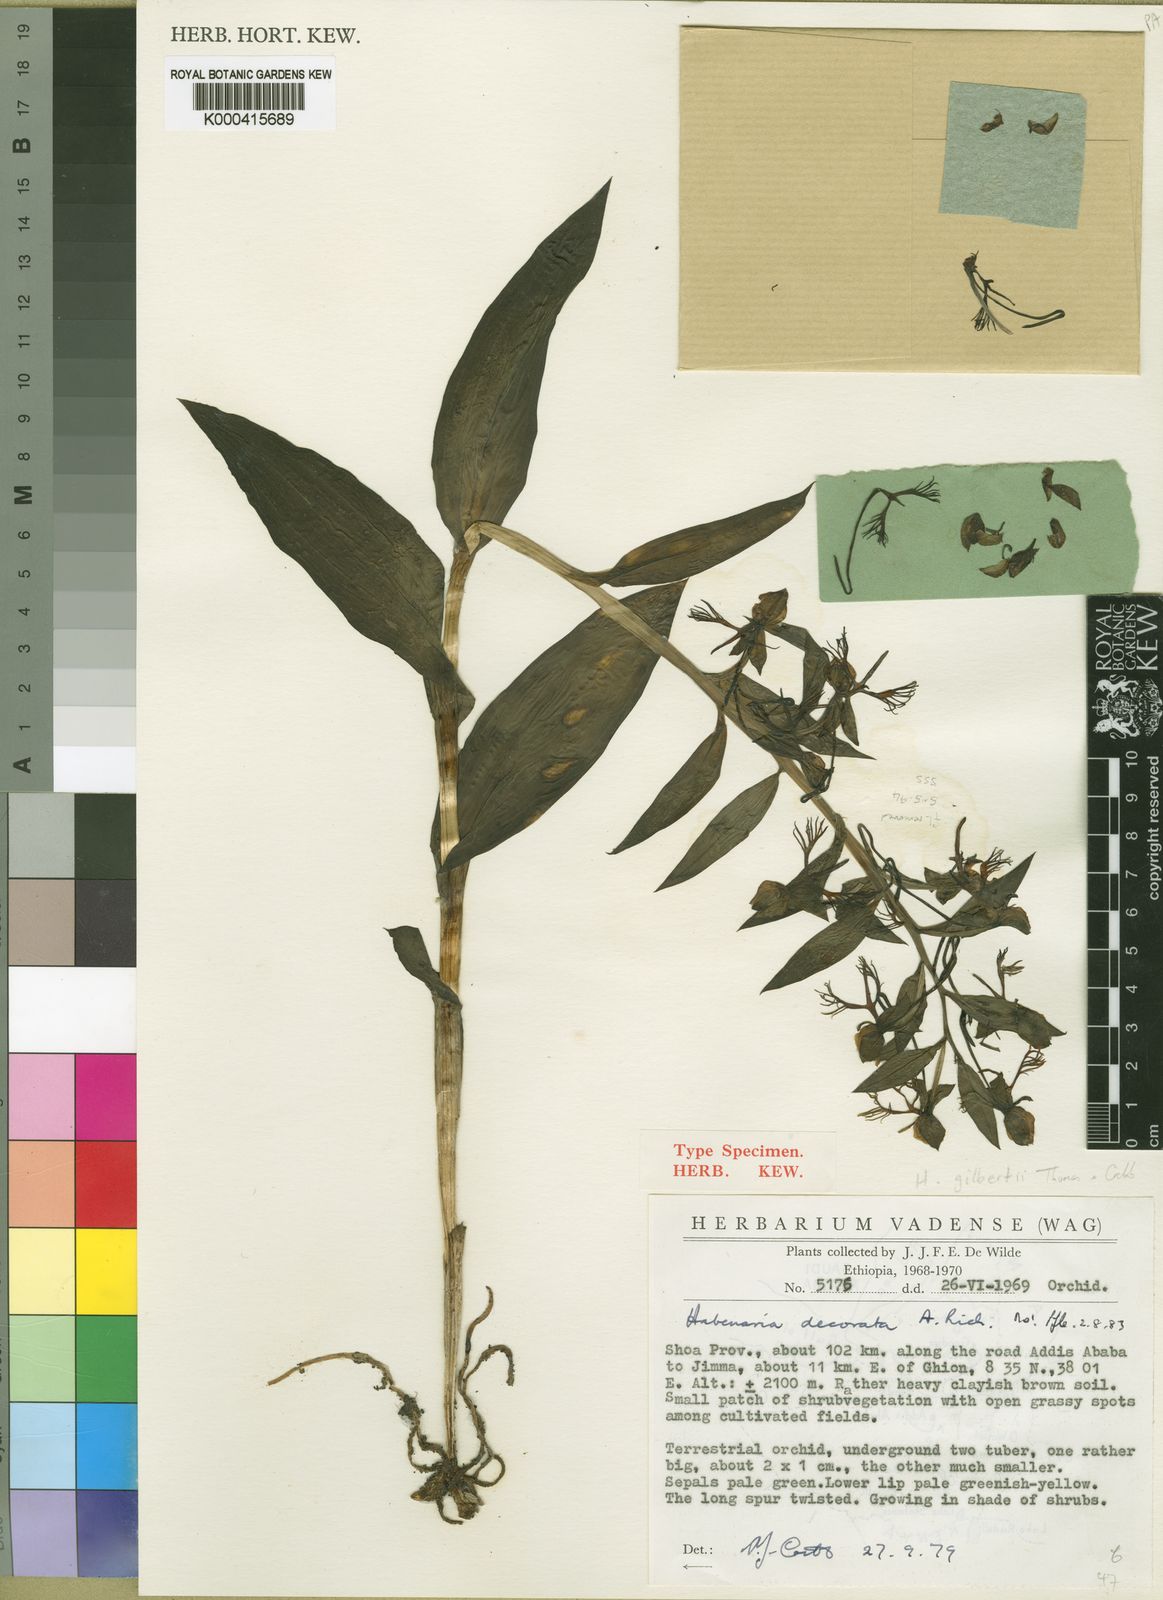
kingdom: Plantae
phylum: Tracheophyta
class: Liliopsida
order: Asparagales
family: Orchidaceae
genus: Habenaria
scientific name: Habenaria decorata
